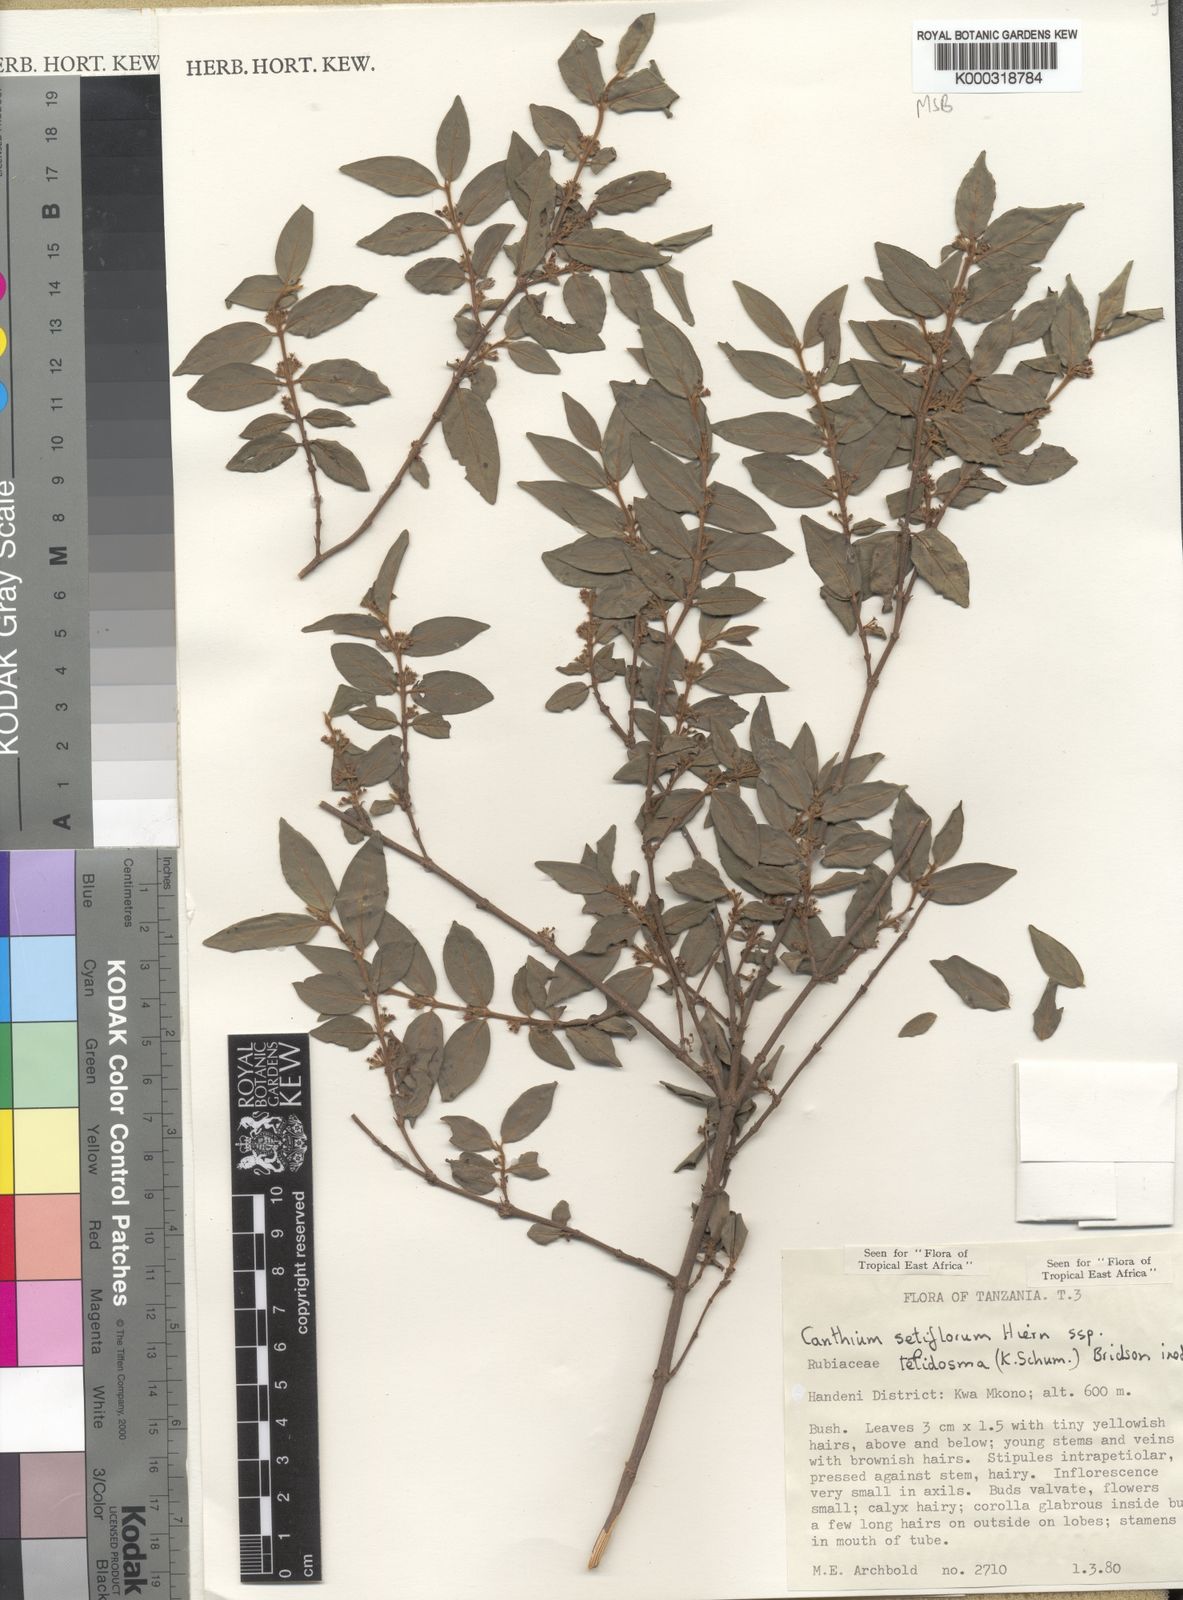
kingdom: Plantae
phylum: Tracheophyta
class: Magnoliopsida
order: Gentianales
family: Rubiaceae
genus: Bullockia
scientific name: Bullockia setiflora
